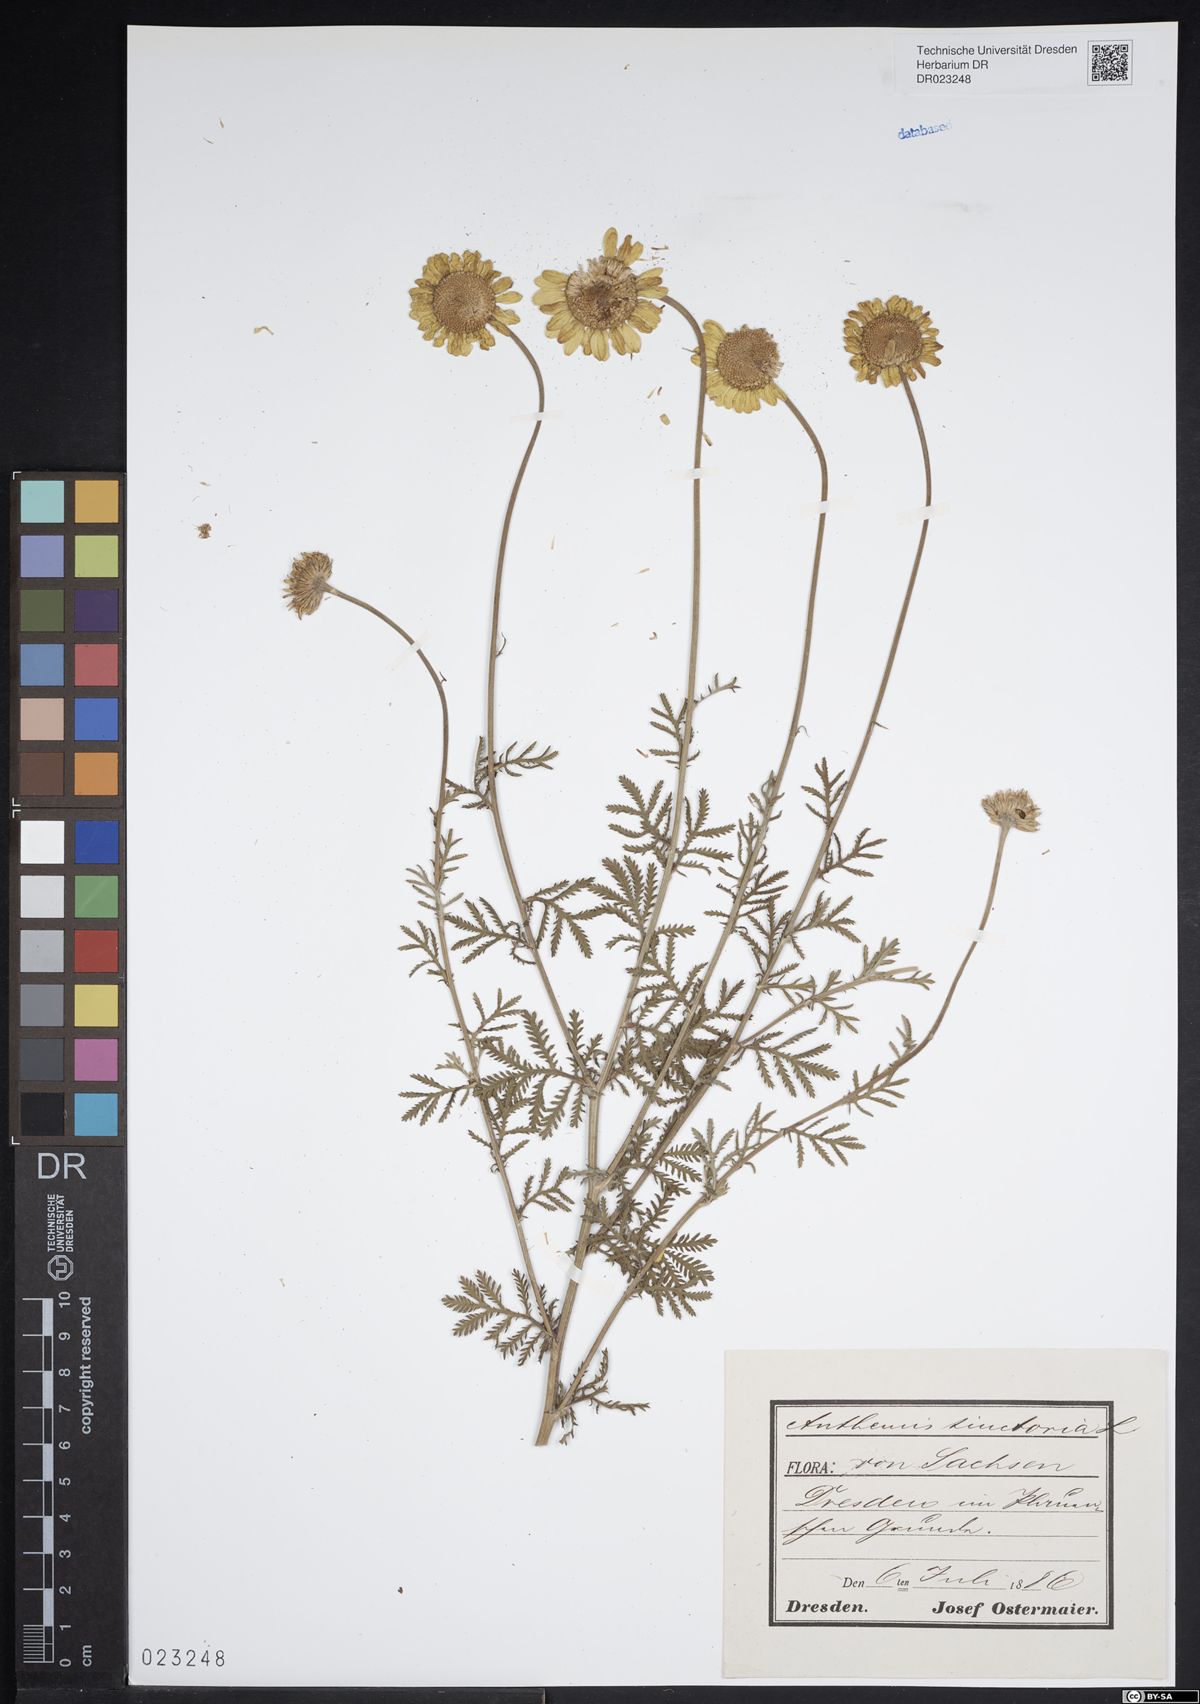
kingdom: Plantae
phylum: Tracheophyta
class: Magnoliopsida
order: Asterales
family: Asteraceae
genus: Cota
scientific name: Cota tinctoria
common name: Golden chamomile
